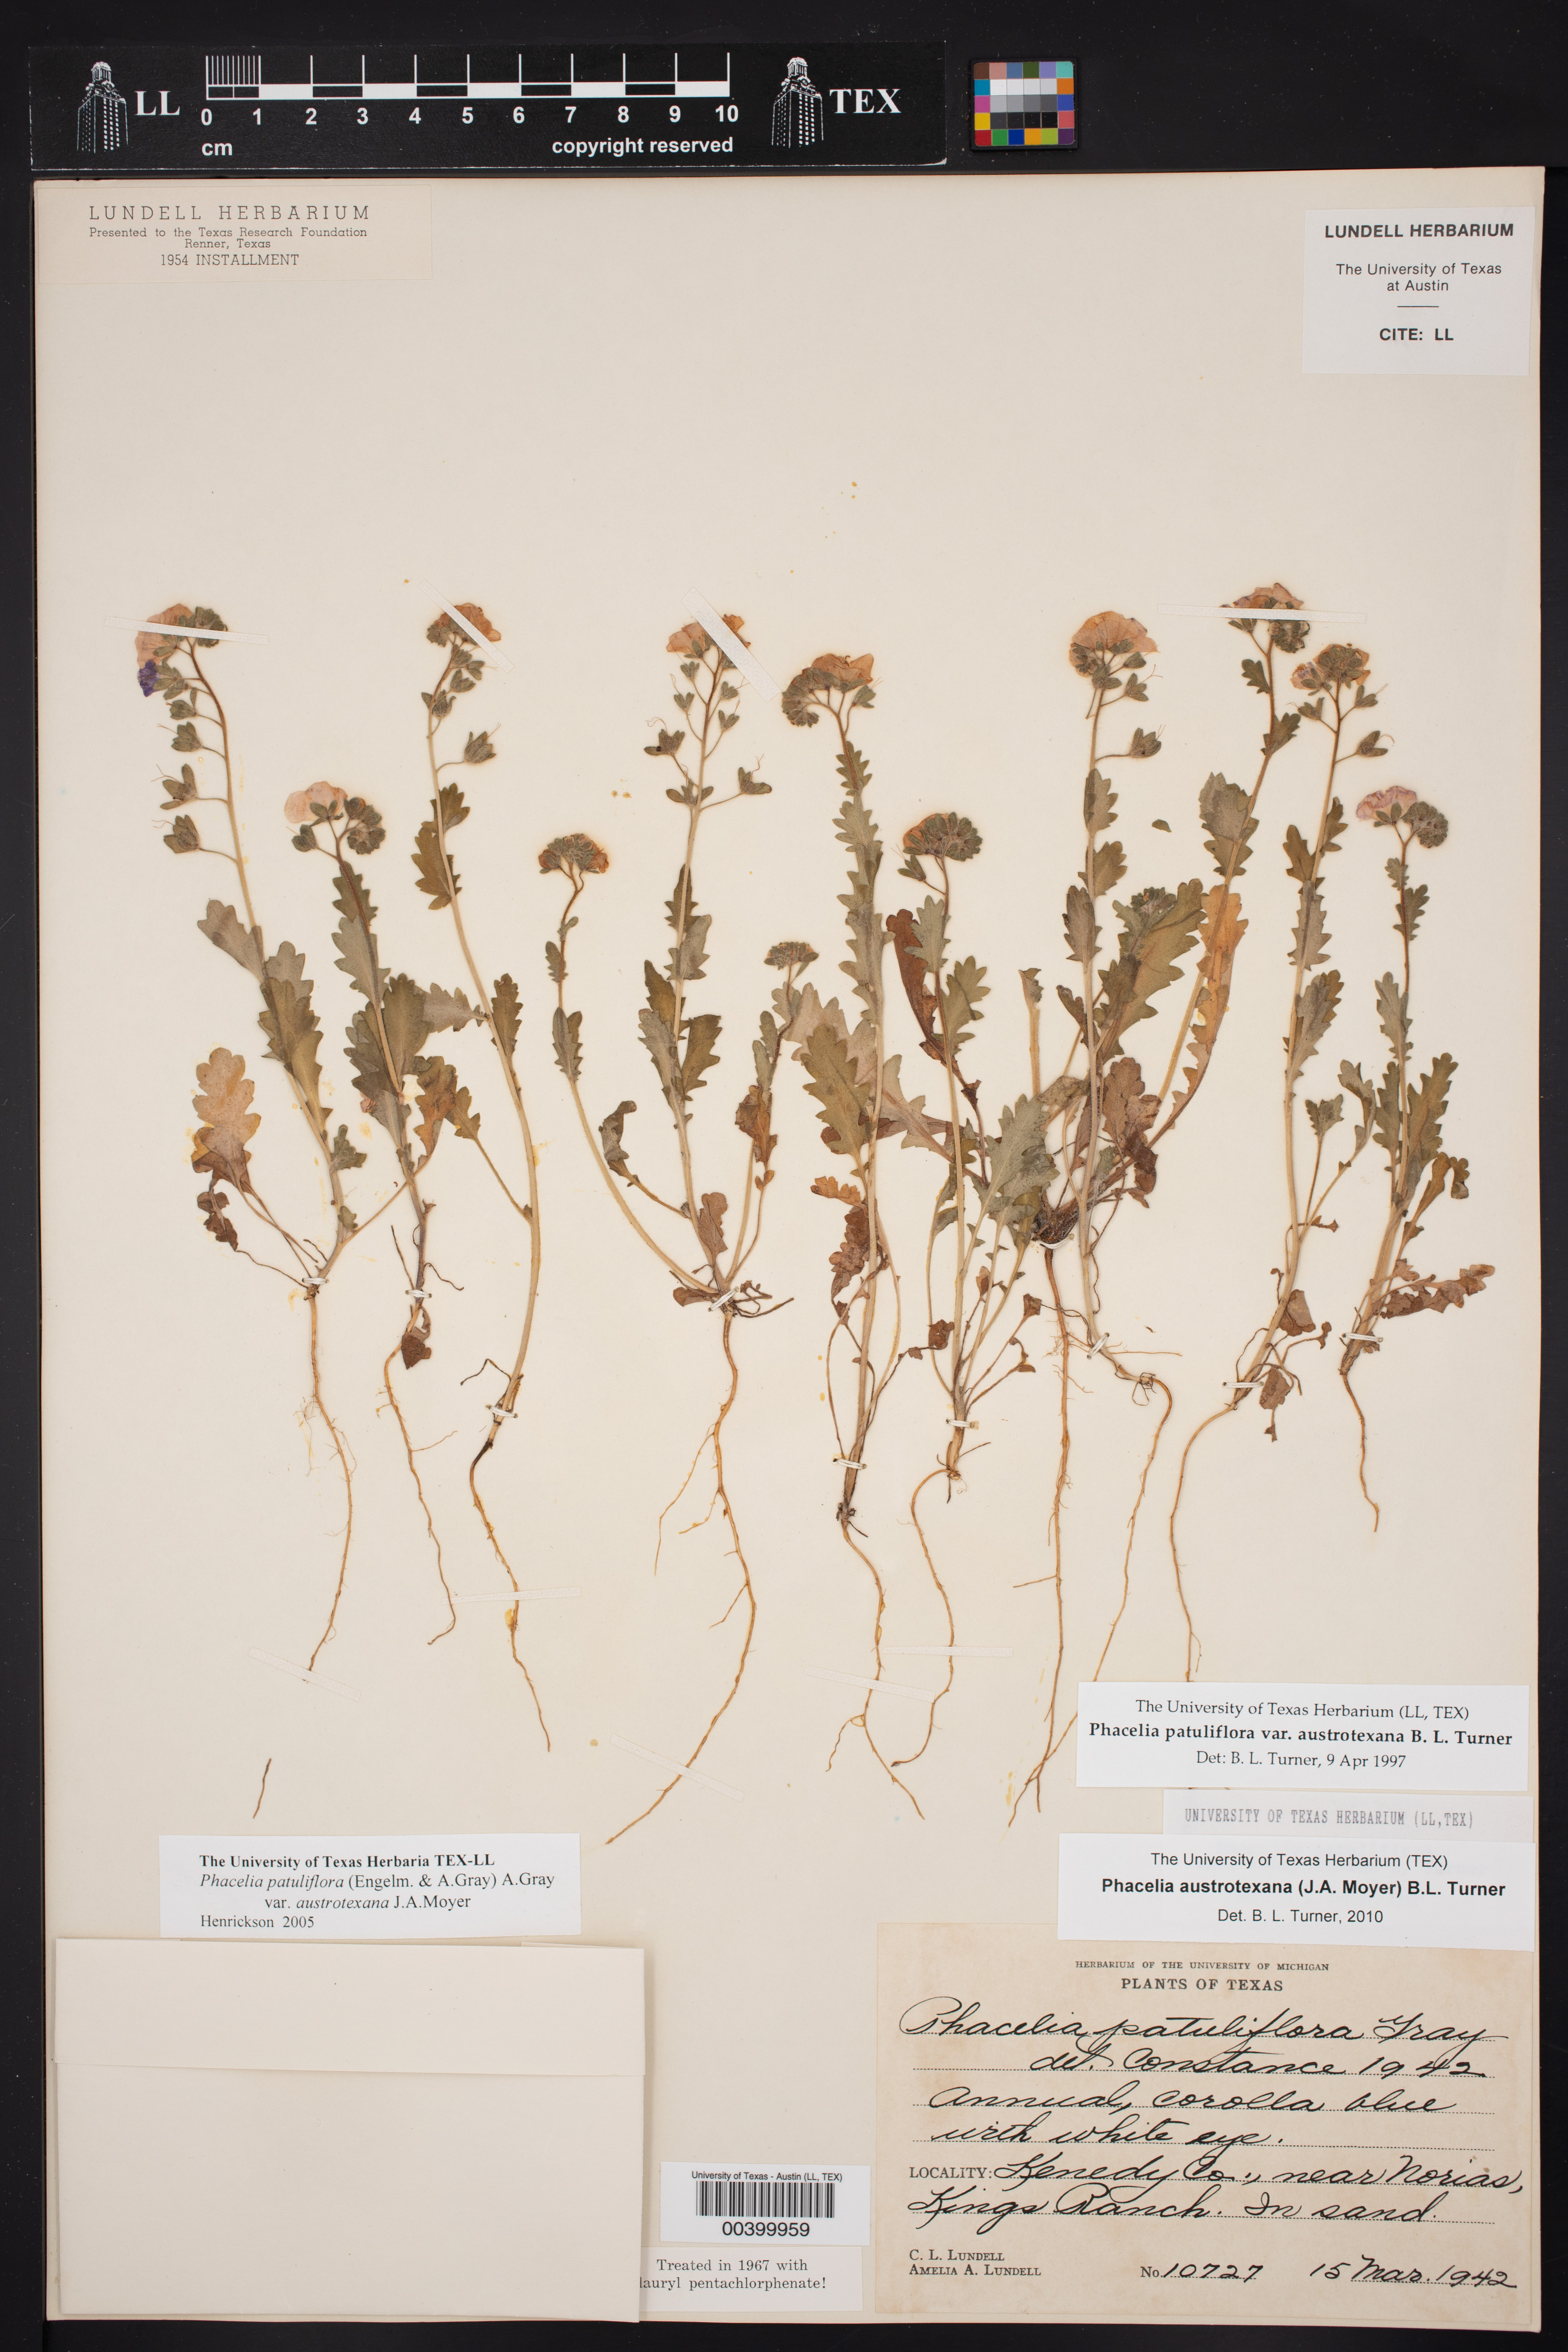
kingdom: Plantae
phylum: Tracheophyta
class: Magnoliopsida
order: Boraginales
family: Hydrophyllaceae
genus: Phacelia
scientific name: Phacelia austrotexana
